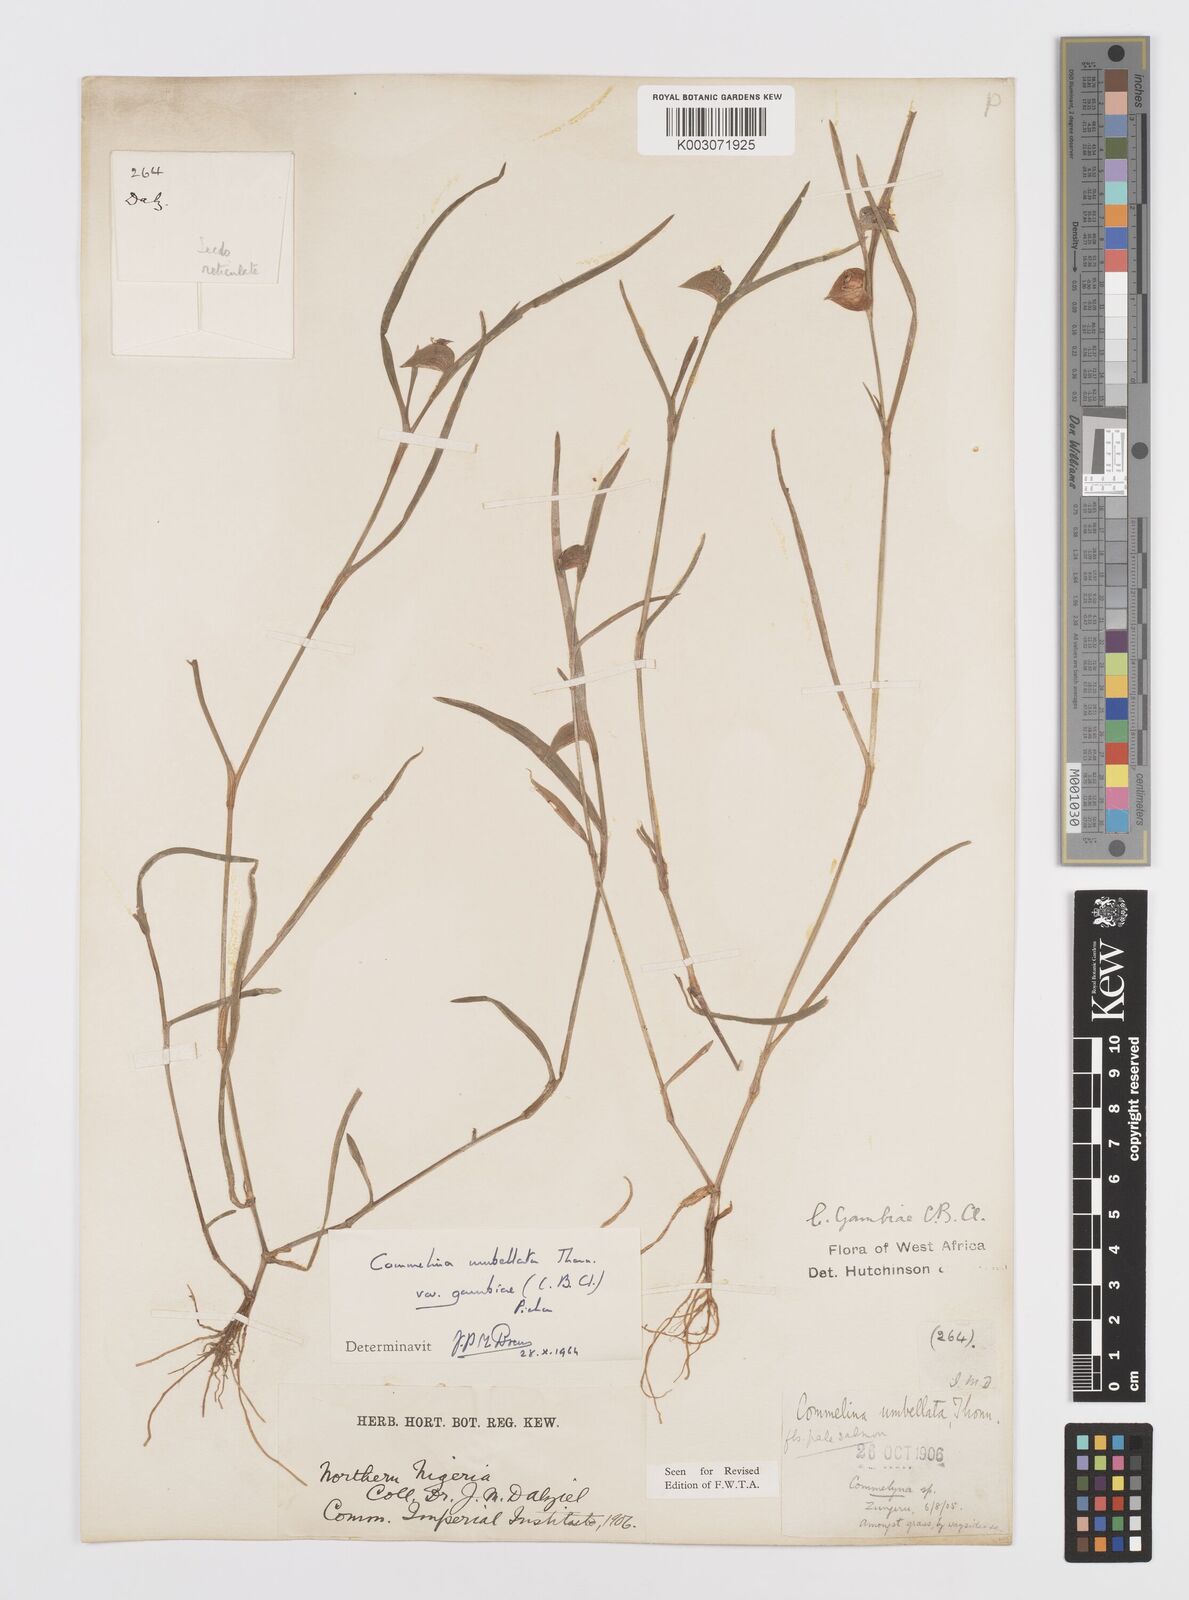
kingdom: Plantae
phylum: Tracheophyta
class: Liliopsida
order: Commelinales
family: Commelinaceae
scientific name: Commelinaceae
